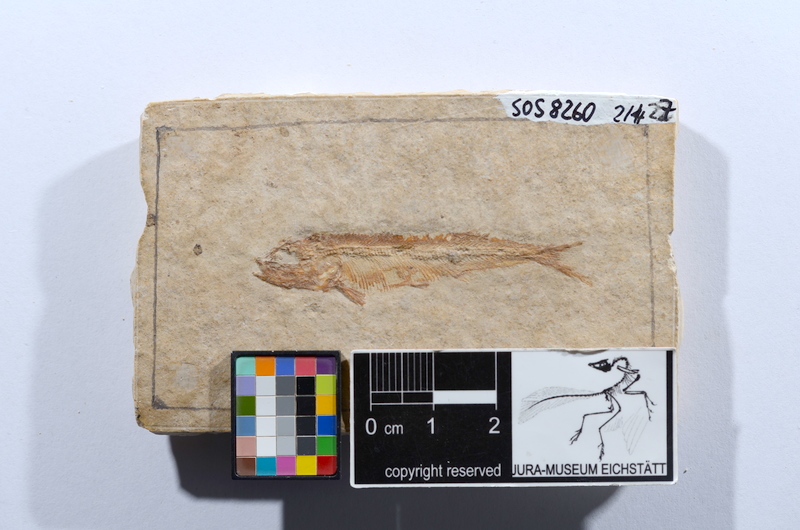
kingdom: Animalia
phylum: Chordata
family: Allothrissopidae
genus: Allothrissops
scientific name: Allothrissops mesogaster
